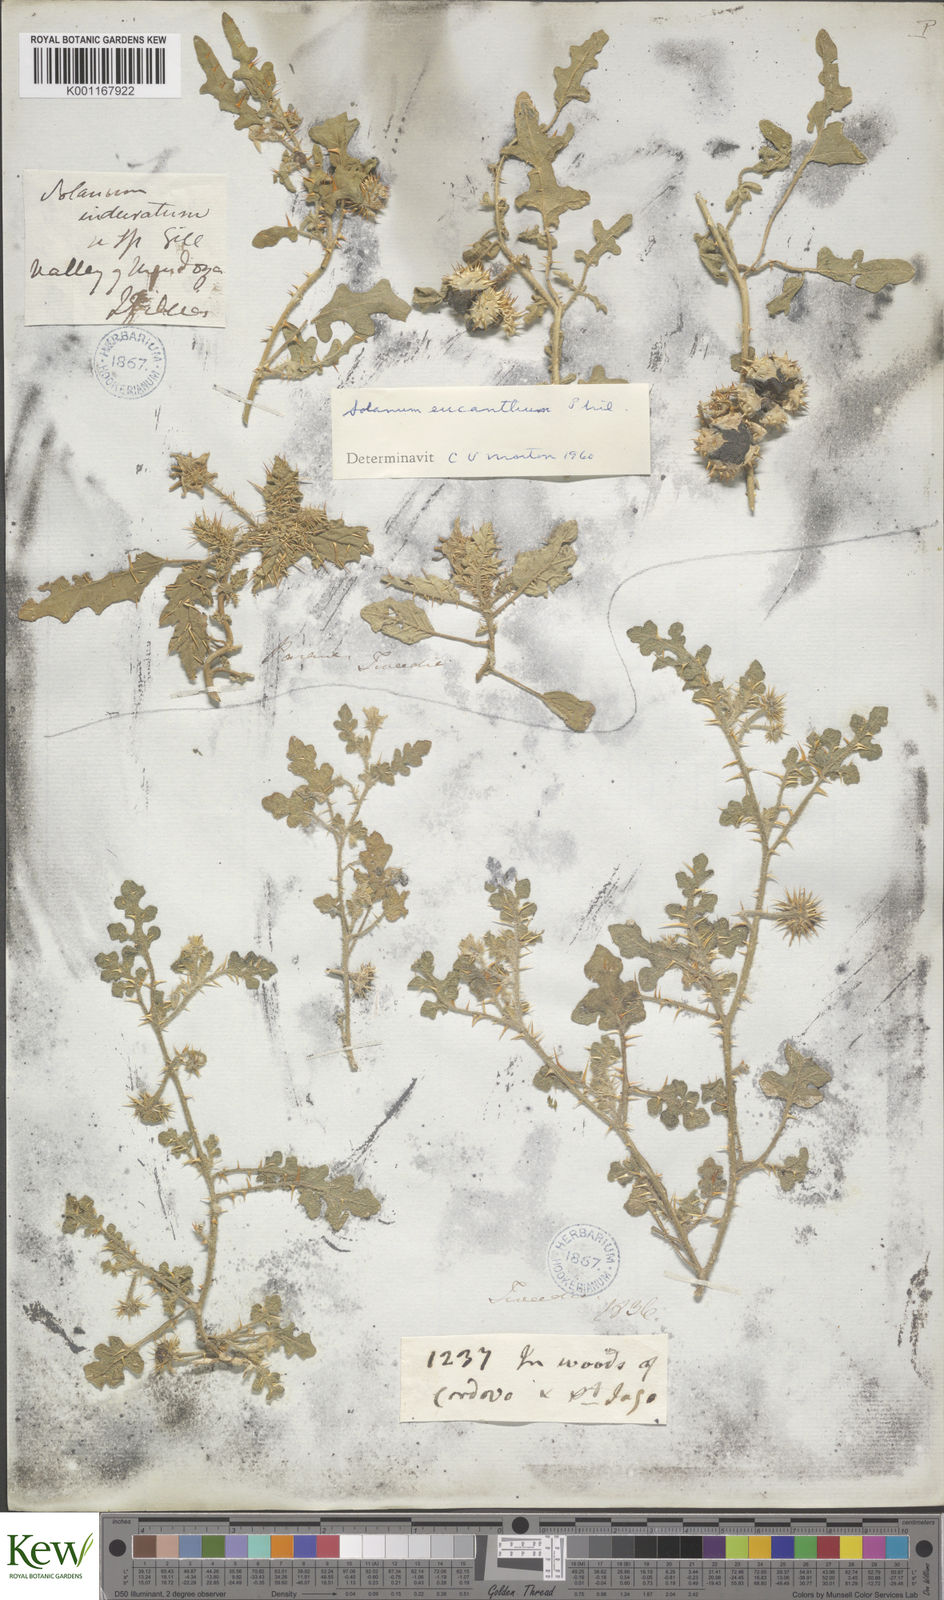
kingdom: Plantae
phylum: Tracheophyta
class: Magnoliopsida
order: Solanales
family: Solanaceae
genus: Solanum
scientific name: Solanum euacanthum
